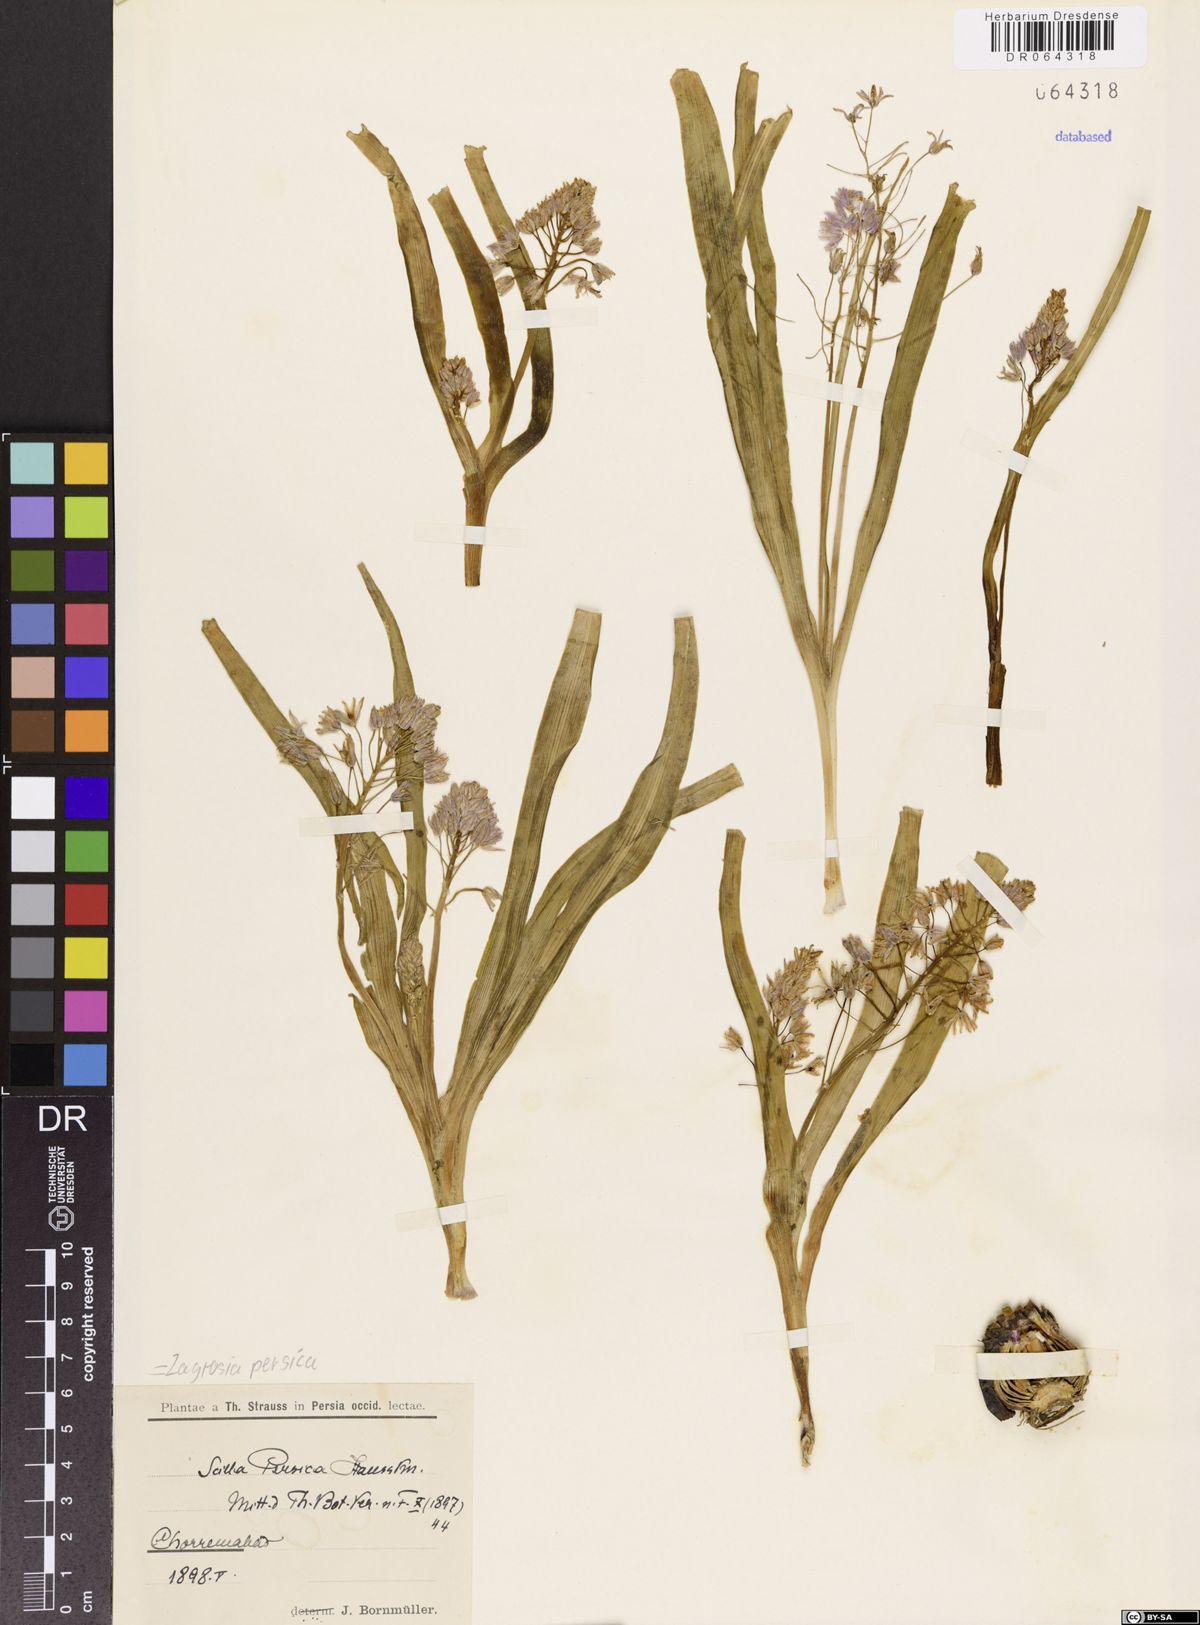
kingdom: Plantae
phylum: Tracheophyta
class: Liliopsida
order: Asparagales
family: Asparagaceae
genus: Zagrosia
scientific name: Zagrosia persica
